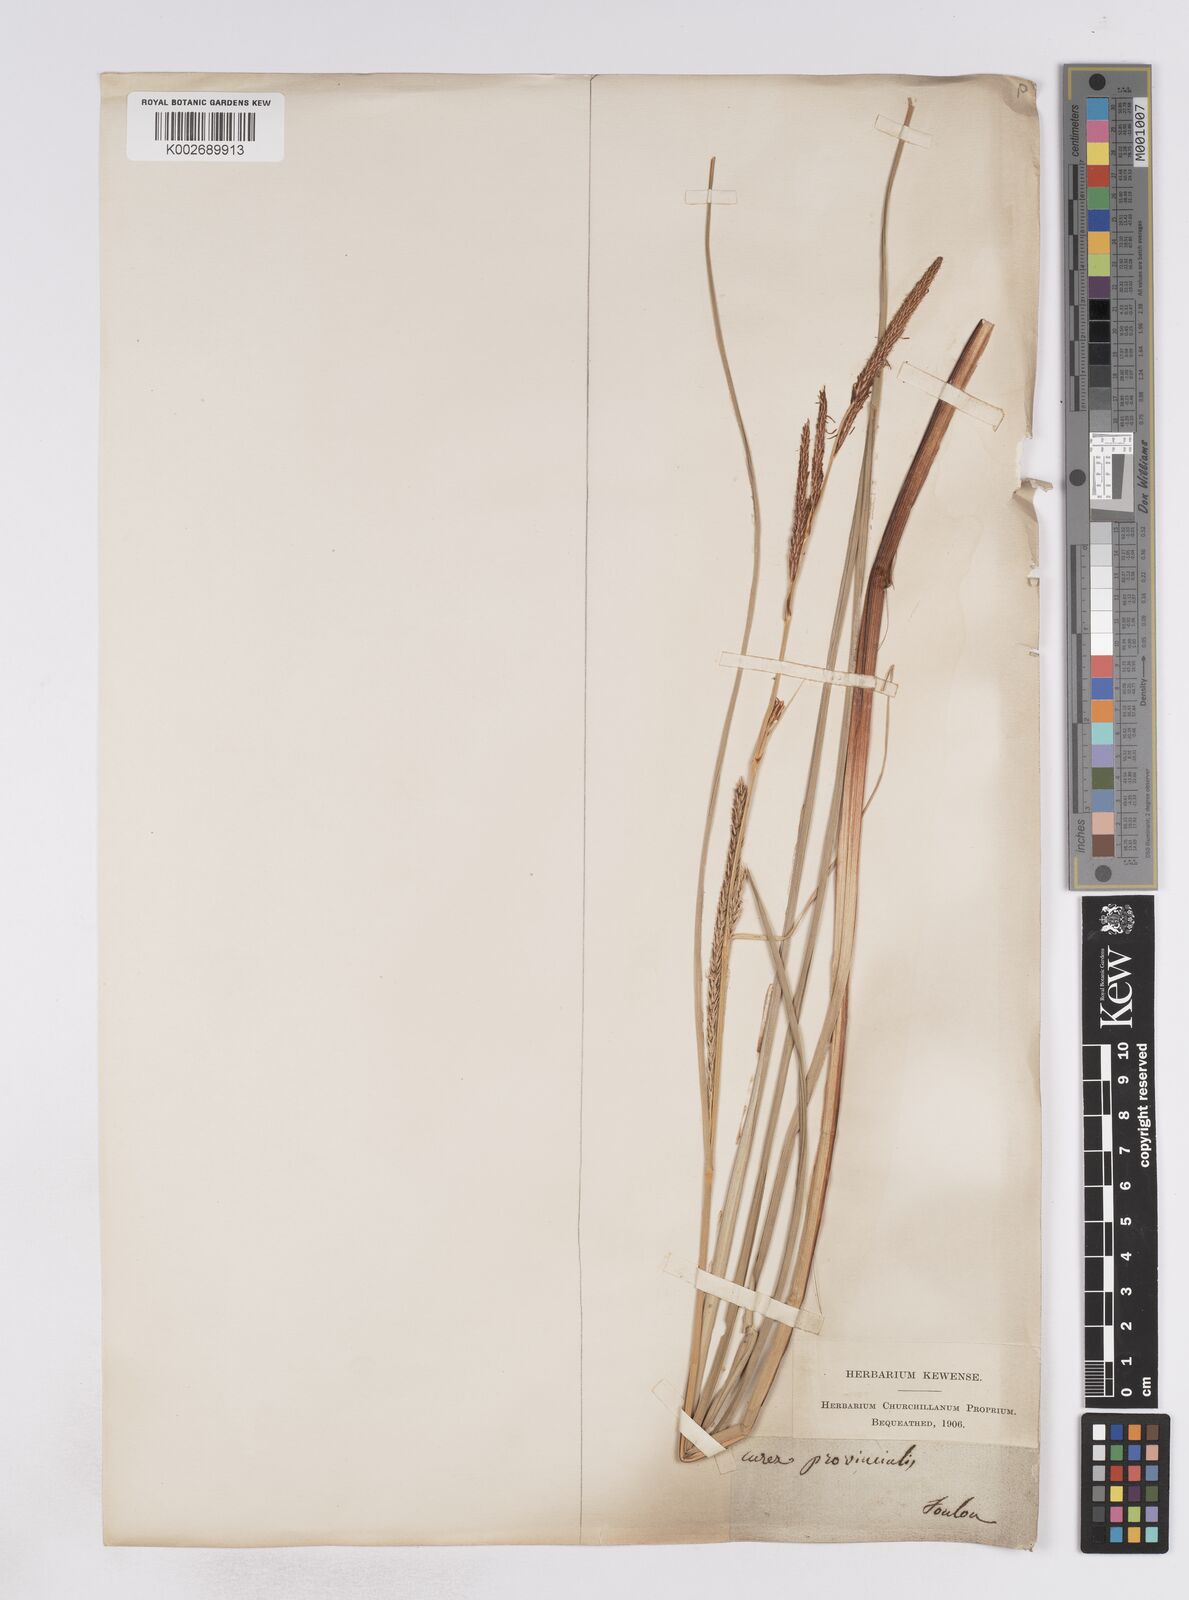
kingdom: Plantae
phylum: Tracheophyta
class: Liliopsida
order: Poales
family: Cyperaceae
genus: Carex
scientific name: Carex hispida
